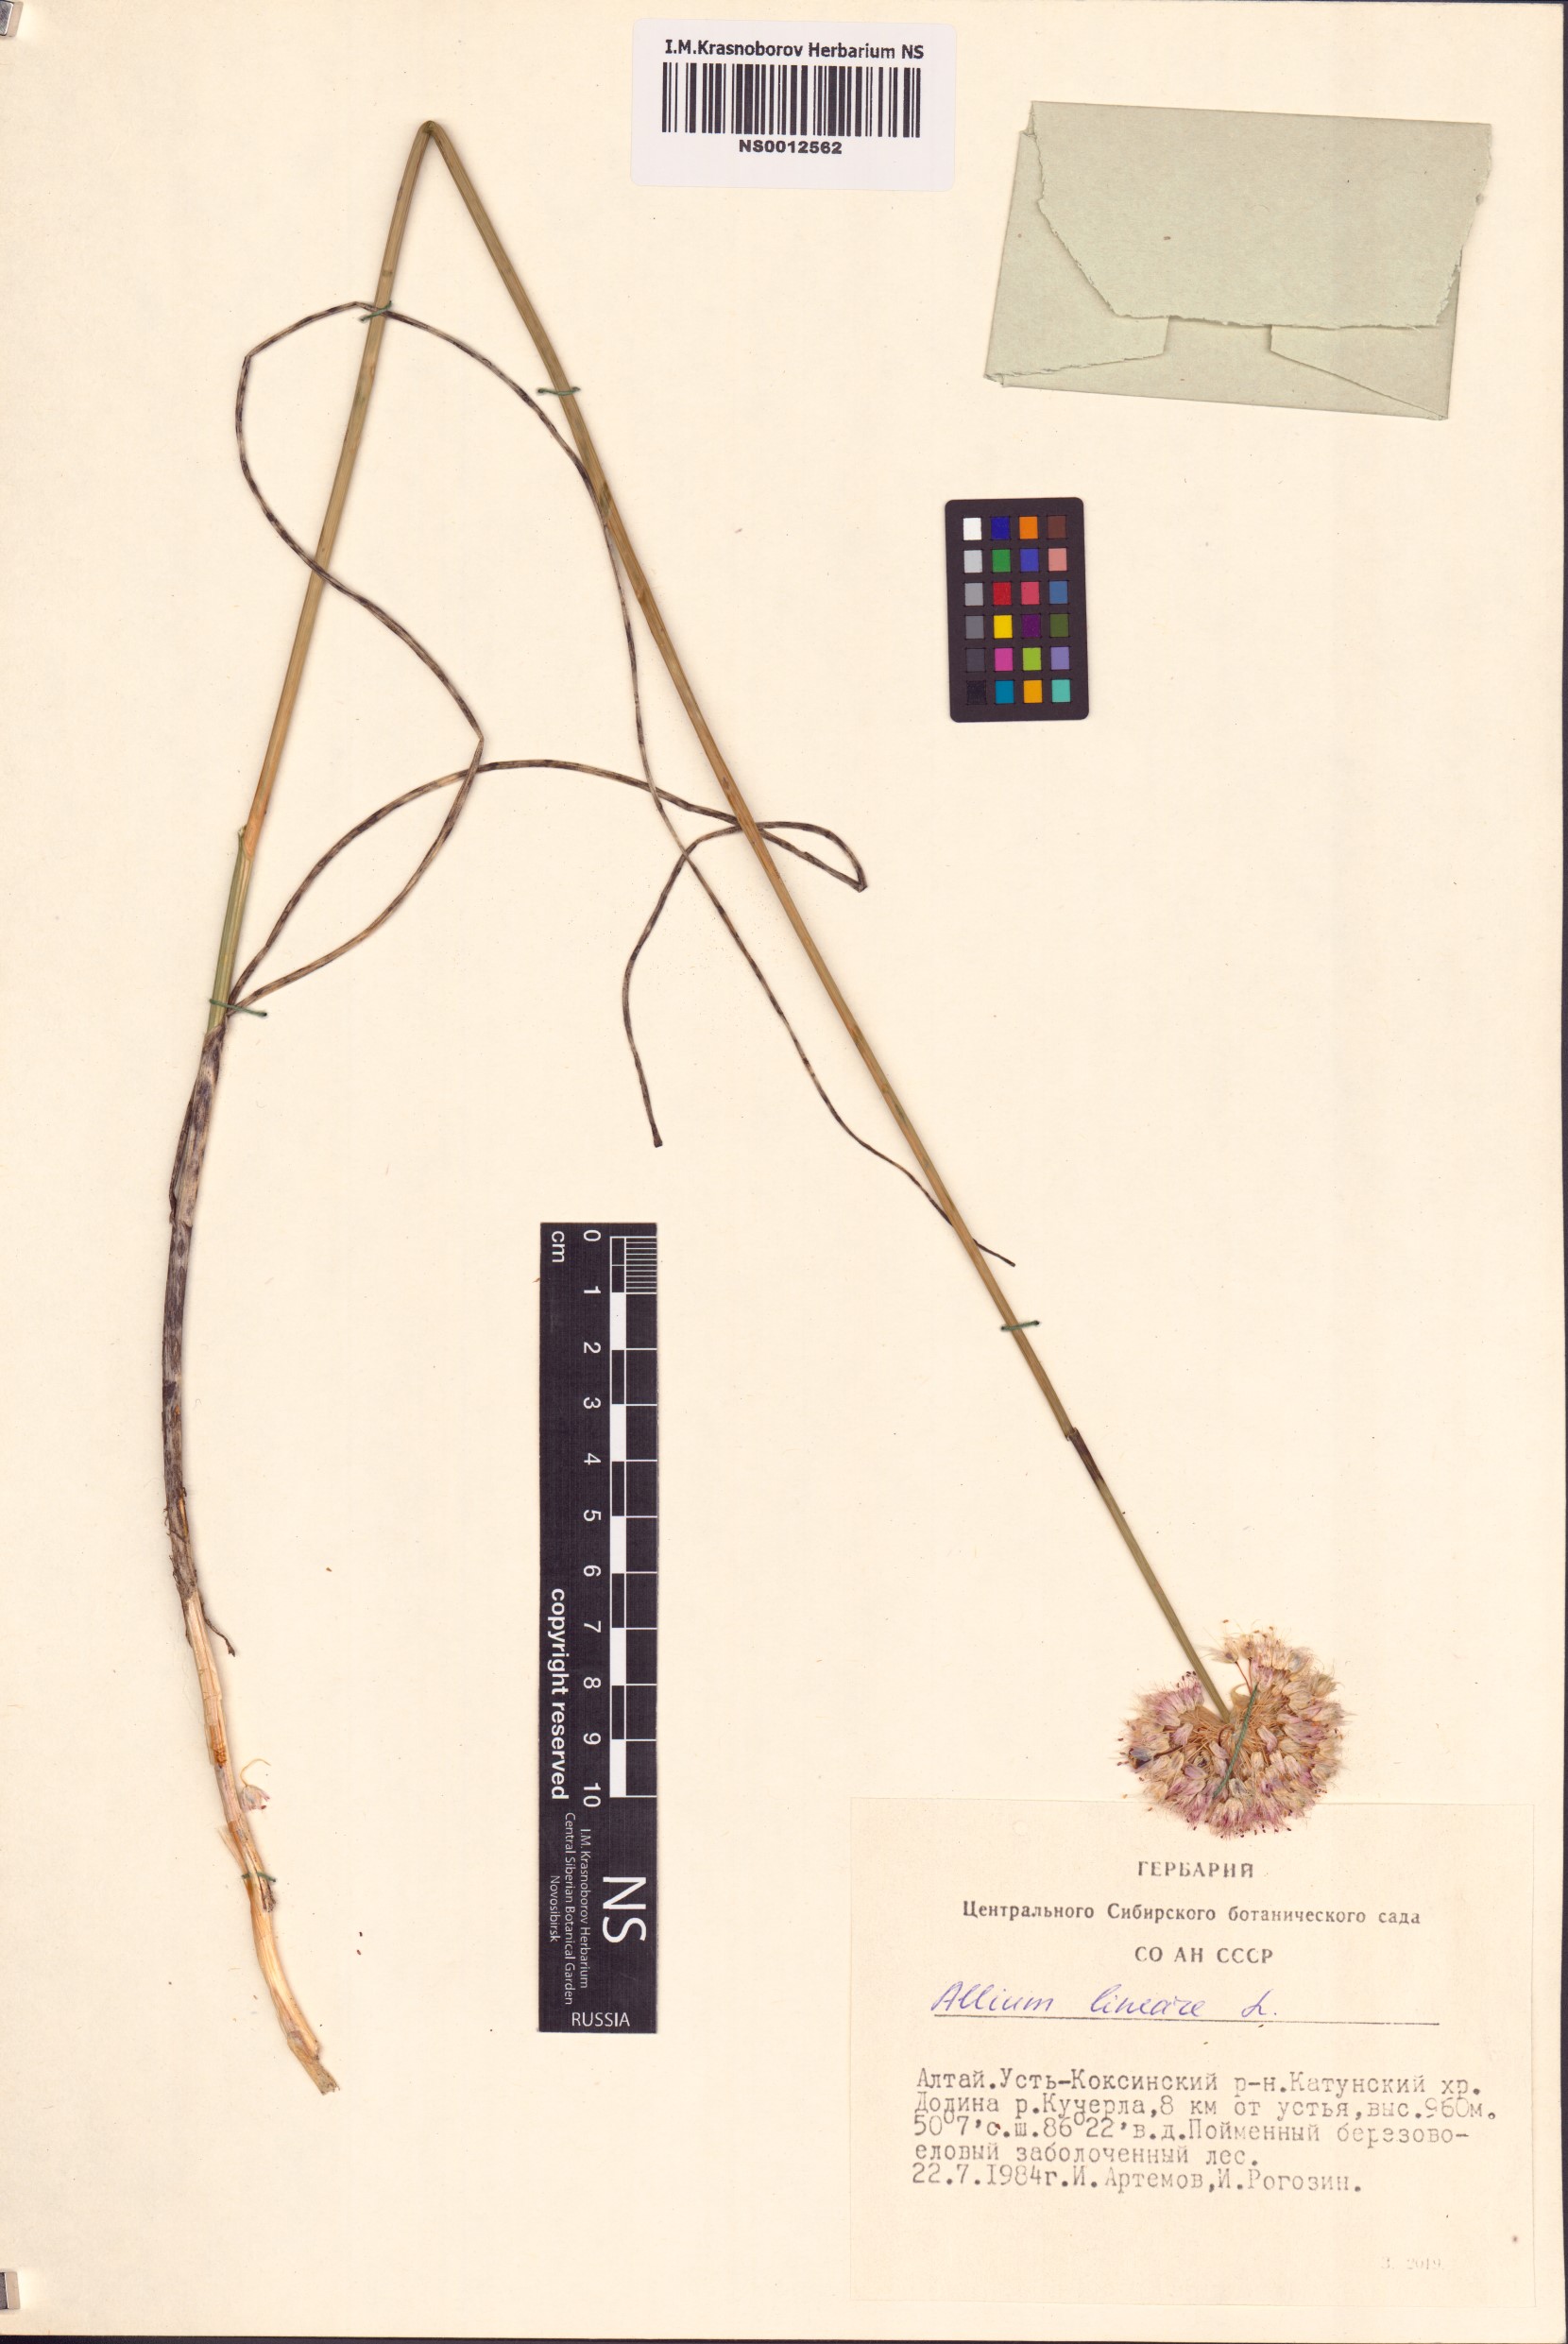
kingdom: Plantae
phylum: Tracheophyta
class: Liliopsida
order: Asparagales
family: Amaryllidaceae
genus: Allium
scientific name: Allium lineare
